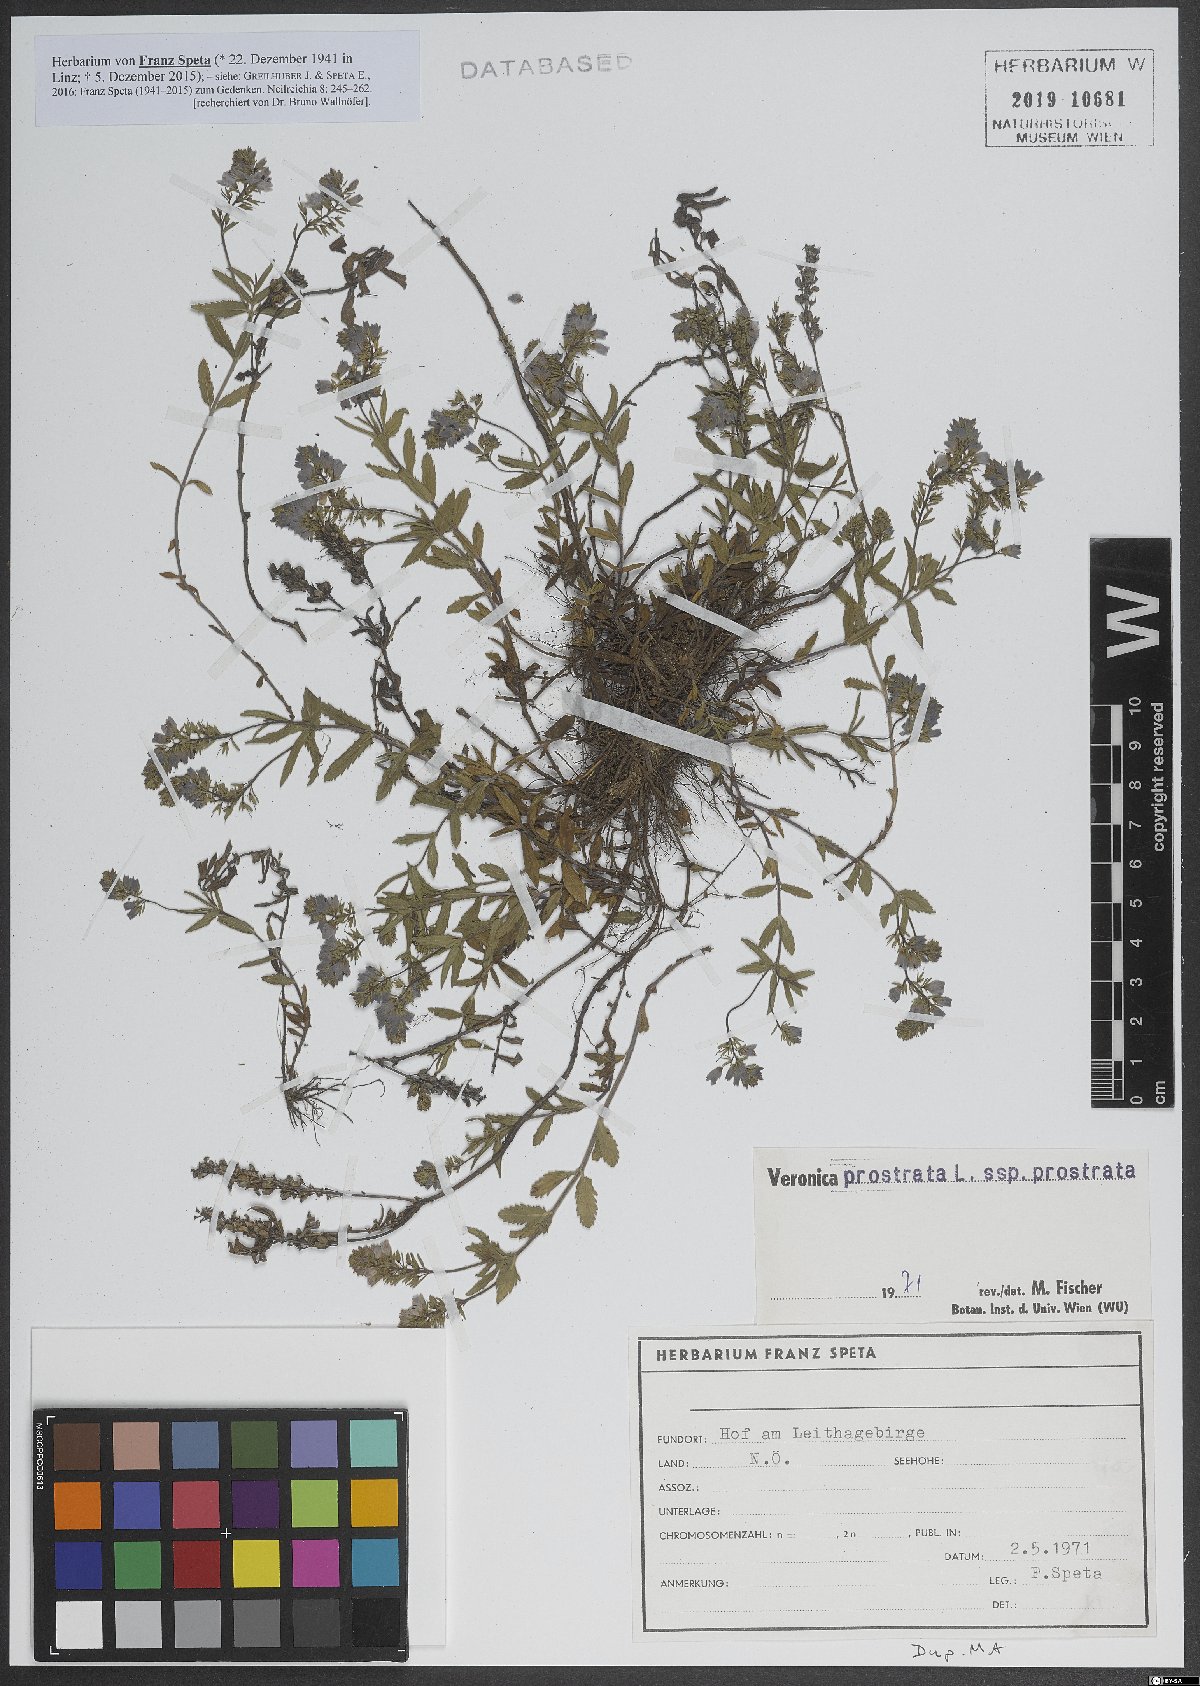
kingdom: Plantae
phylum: Tracheophyta
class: Magnoliopsida
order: Lamiales
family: Plantaginaceae
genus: Veronica
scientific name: Veronica prostrata
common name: Prostrate speedwell
